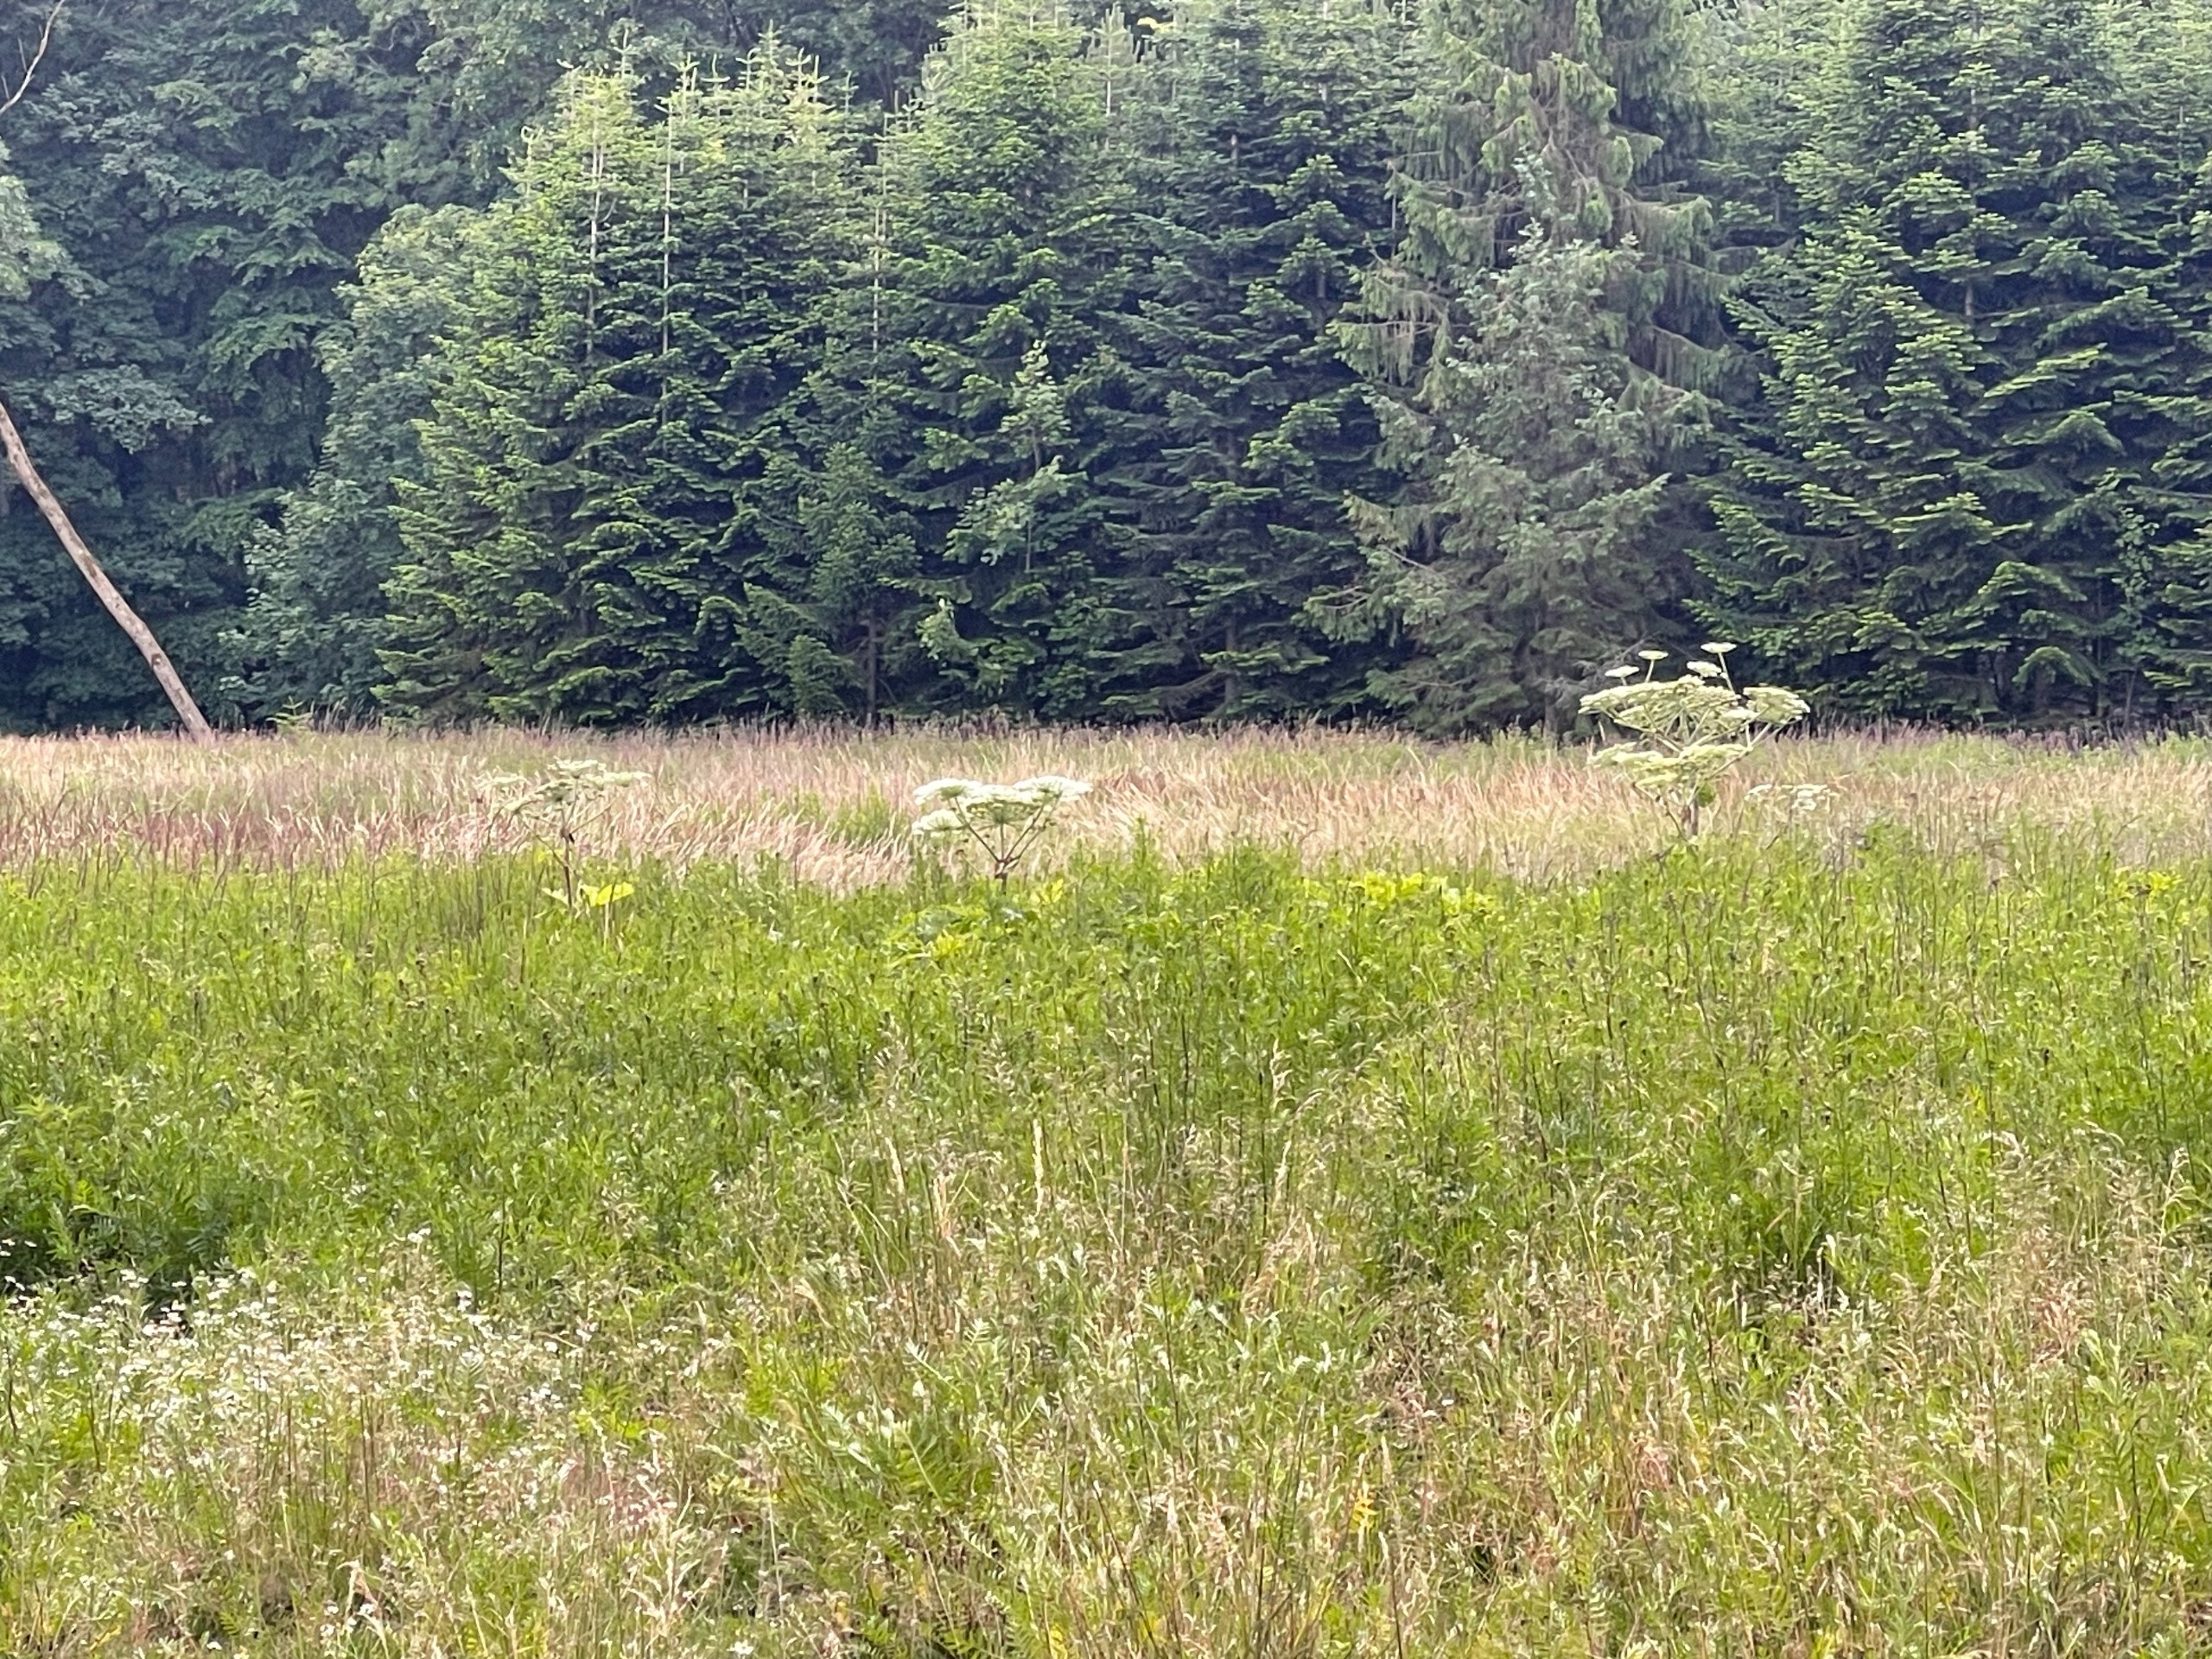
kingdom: Plantae
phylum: Tracheophyta
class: Magnoliopsida
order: Apiales
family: Apiaceae
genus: Heracleum
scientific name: Heracleum mantegazzianum
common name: Kæmpe-bjørneklo
